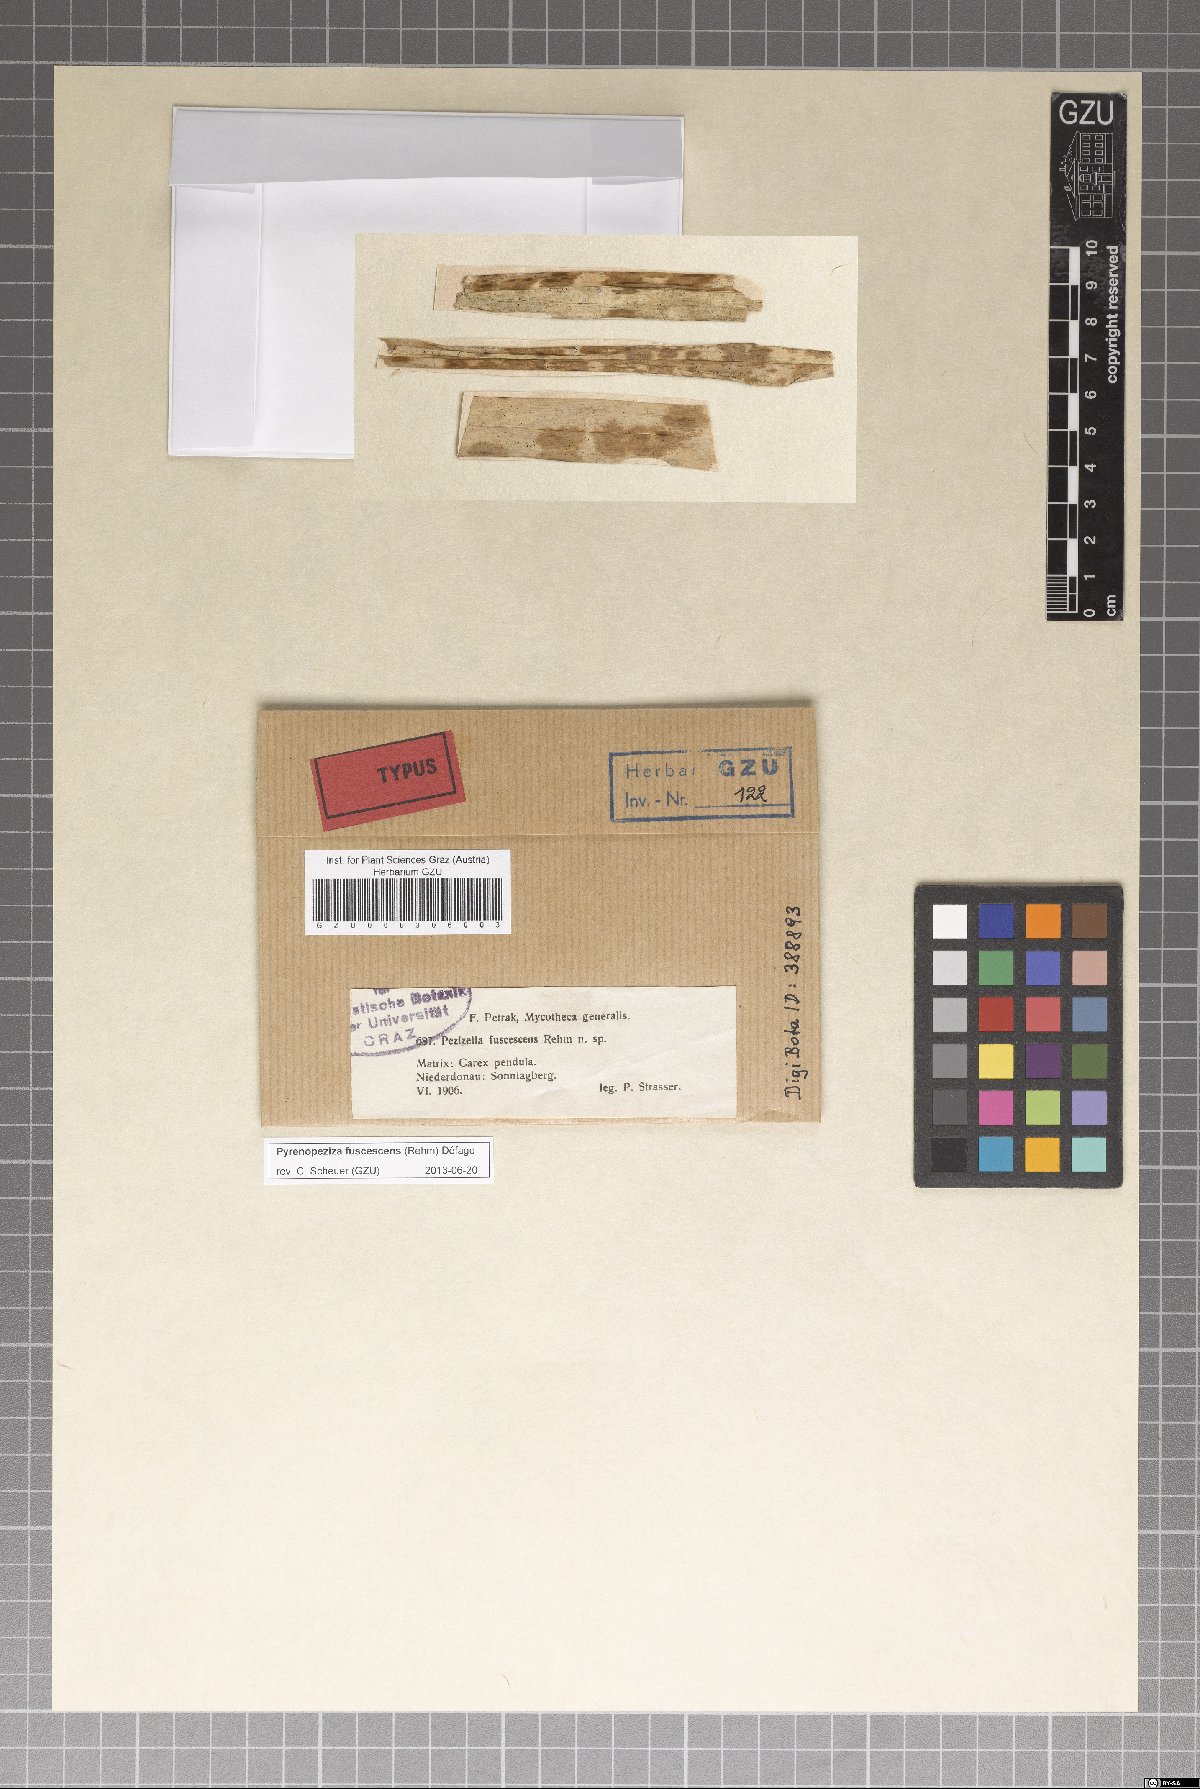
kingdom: Fungi
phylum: Ascomycota
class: Leotiomycetes
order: Helotiales
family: Ploettnerulaceae
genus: Pyrenopeziza
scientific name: Pyrenopeziza fuscescens
